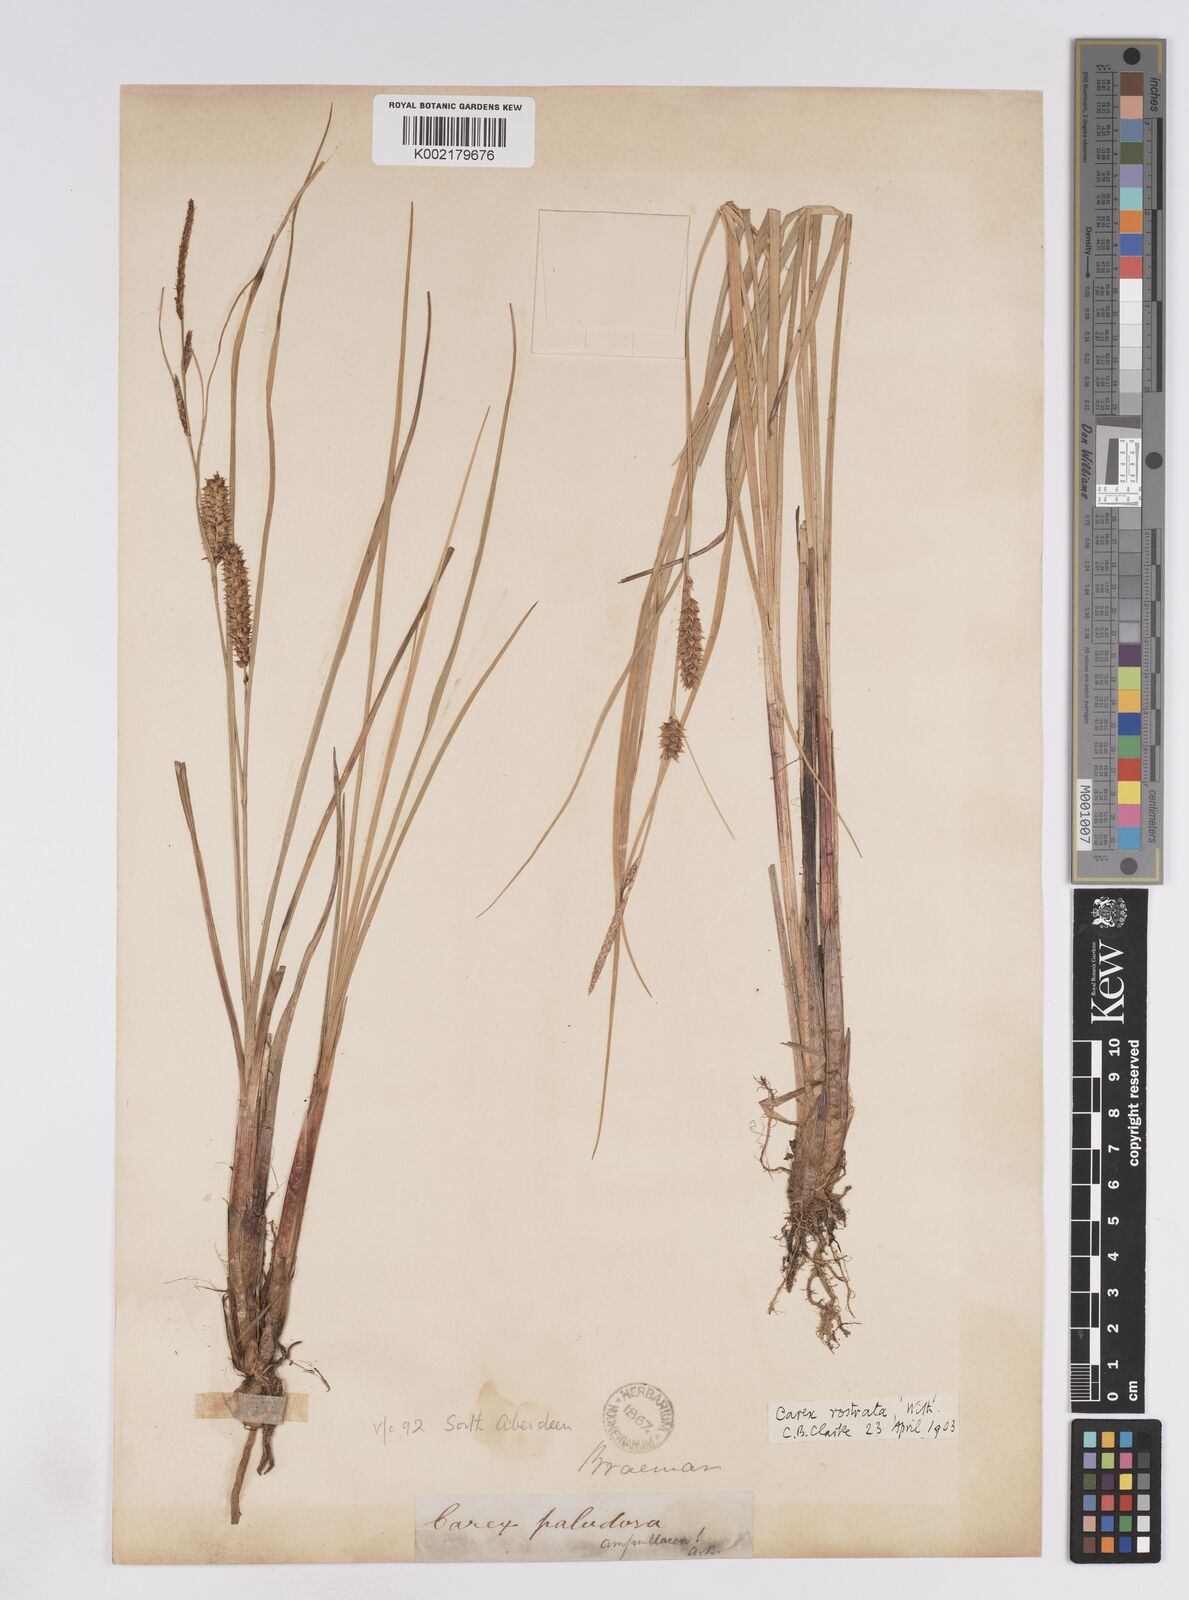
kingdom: Plantae
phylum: Tracheophyta
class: Liliopsida
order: Poales
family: Cyperaceae
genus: Carex
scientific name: Carex rostrata
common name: Bottle sedge
